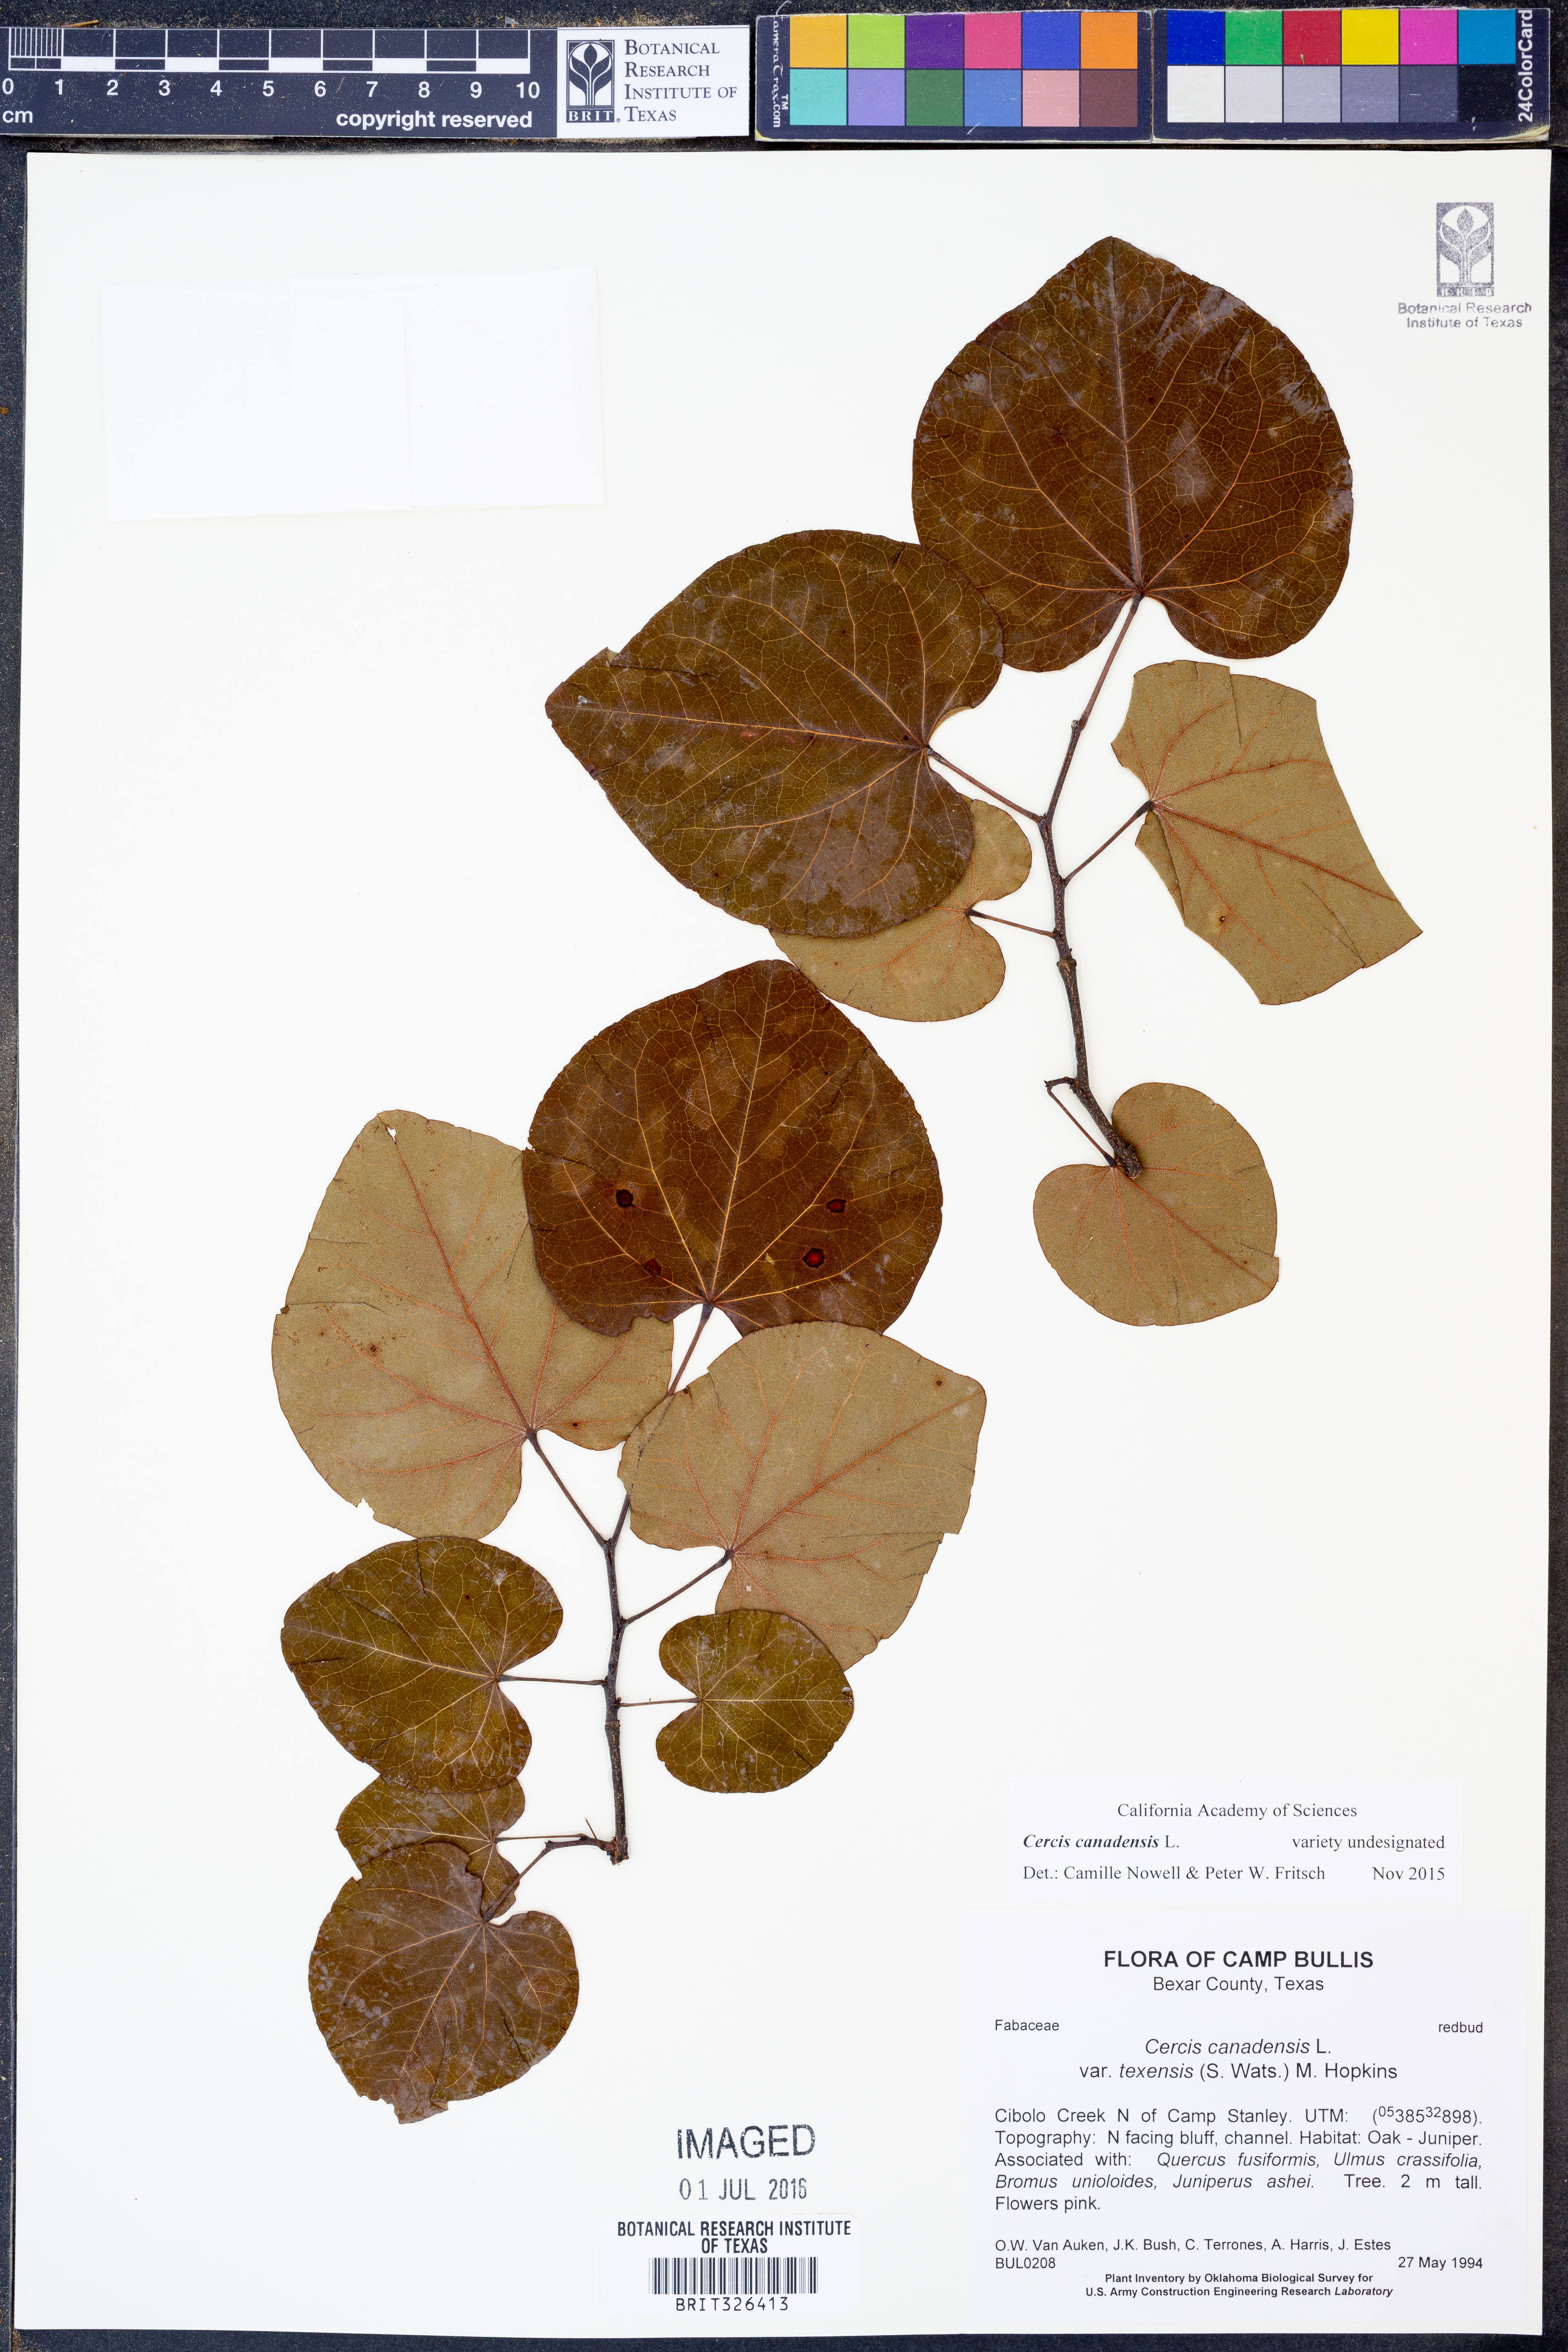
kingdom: Plantae
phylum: Tracheophyta
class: Magnoliopsida
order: Fabales
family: Fabaceae
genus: Cercis
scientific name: Cercis canadensis
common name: Eastern redbud
